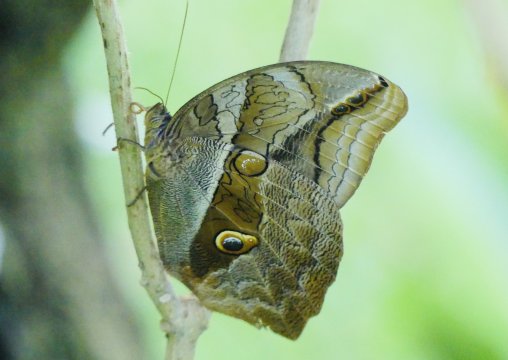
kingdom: Animalia
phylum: Arthropoda
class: Insecta
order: Lepidoptera
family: Nymphalidae
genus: Eryphanis
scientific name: Eryphanis lycomedon
